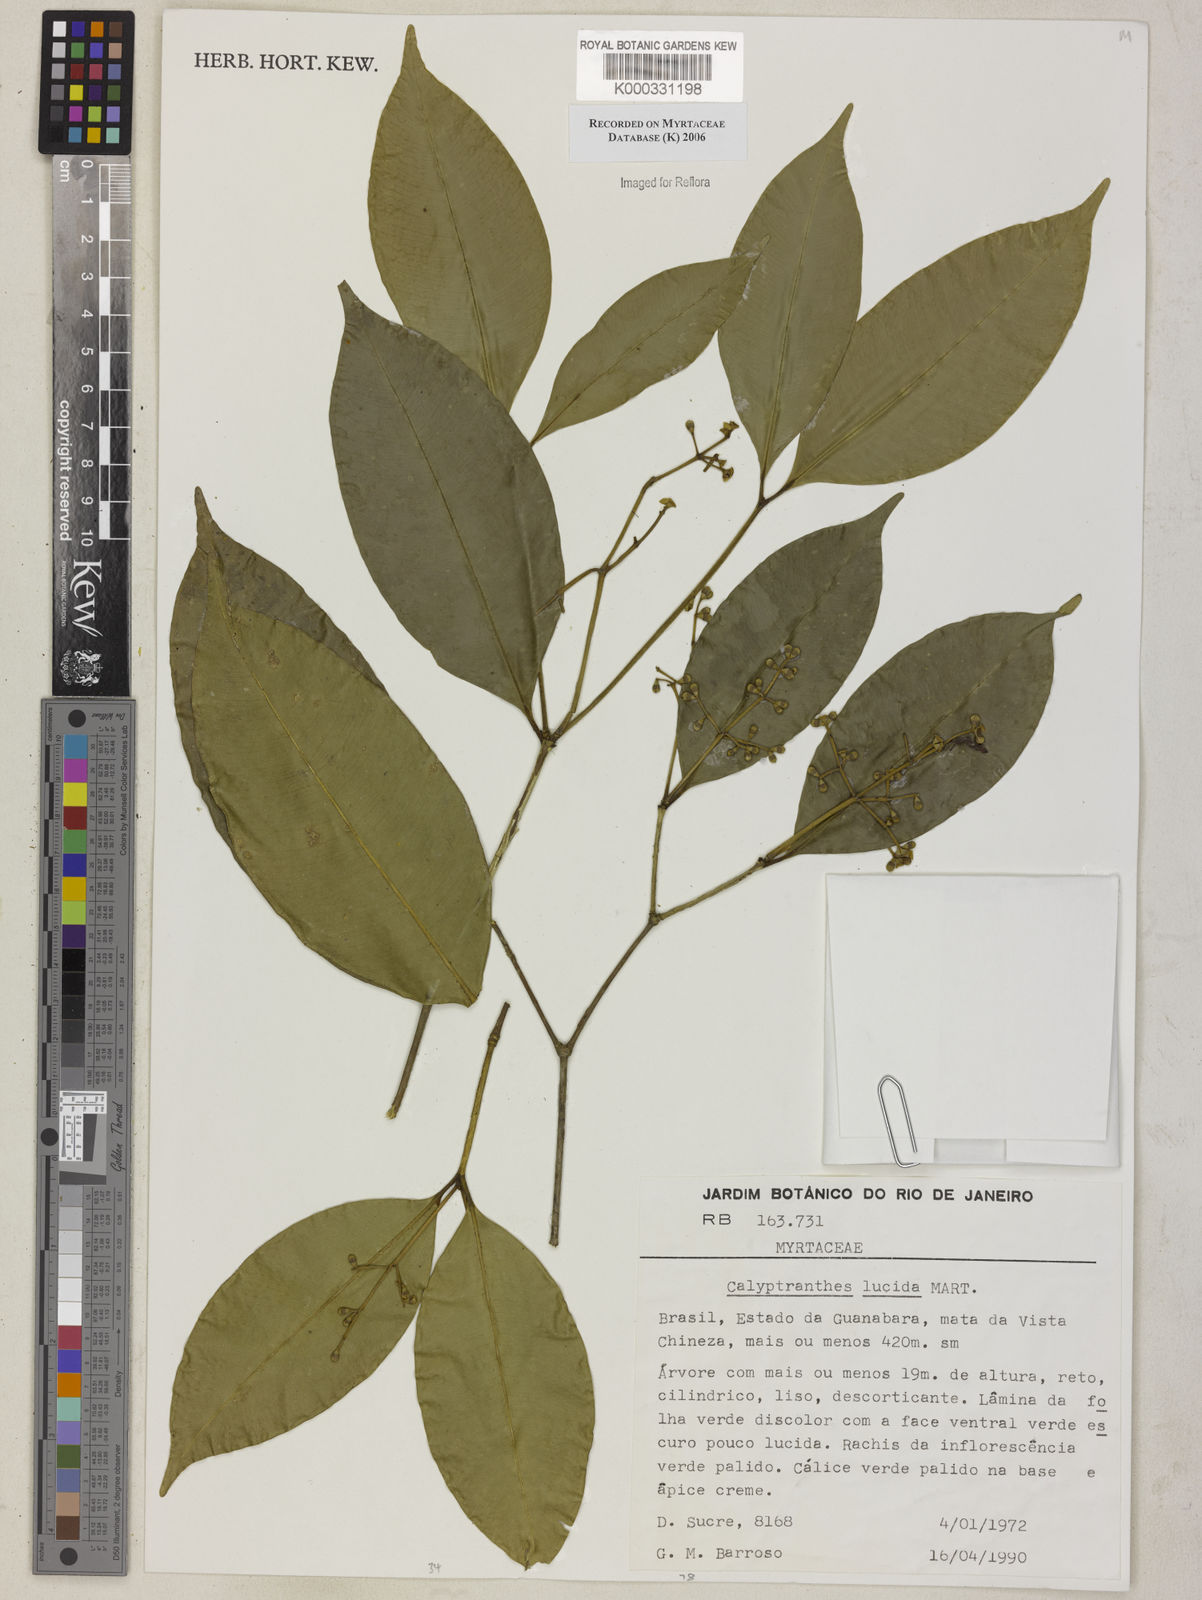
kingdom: Plantae
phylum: Tracheophyta
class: Magnoliopsida
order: Myrtales
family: Myrtaceae
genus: Myrcia
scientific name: Myrcia neolucida
